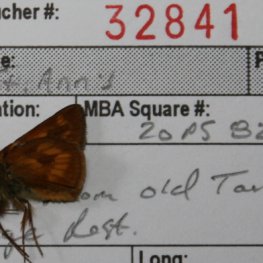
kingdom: Animalia
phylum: Arthropoda
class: Insecta
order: Lepidoptera
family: Hesperiidae
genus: Polites
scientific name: Polites
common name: Long Dash Skipper
